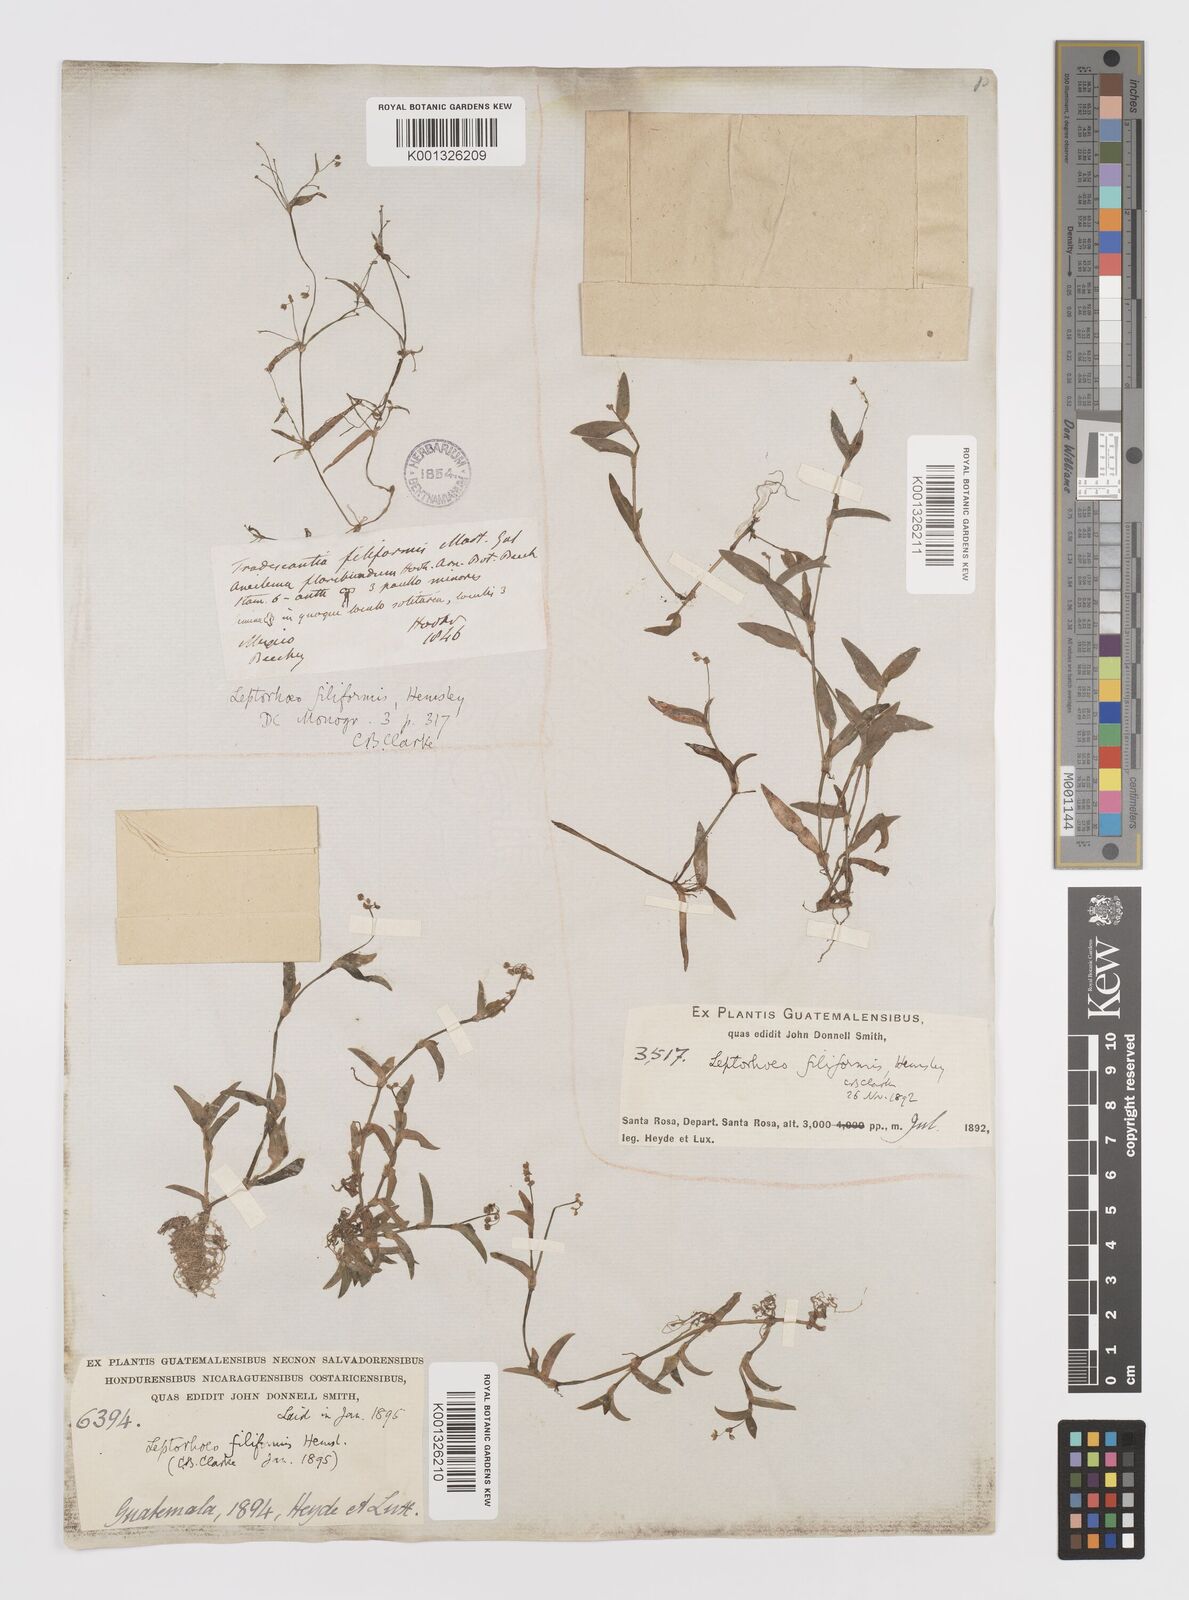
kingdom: Plantae
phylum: Tracheophyta
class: Liliopsida
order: Commelinales
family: Commelinaceae
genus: Callisia
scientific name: Callisia filiformis
